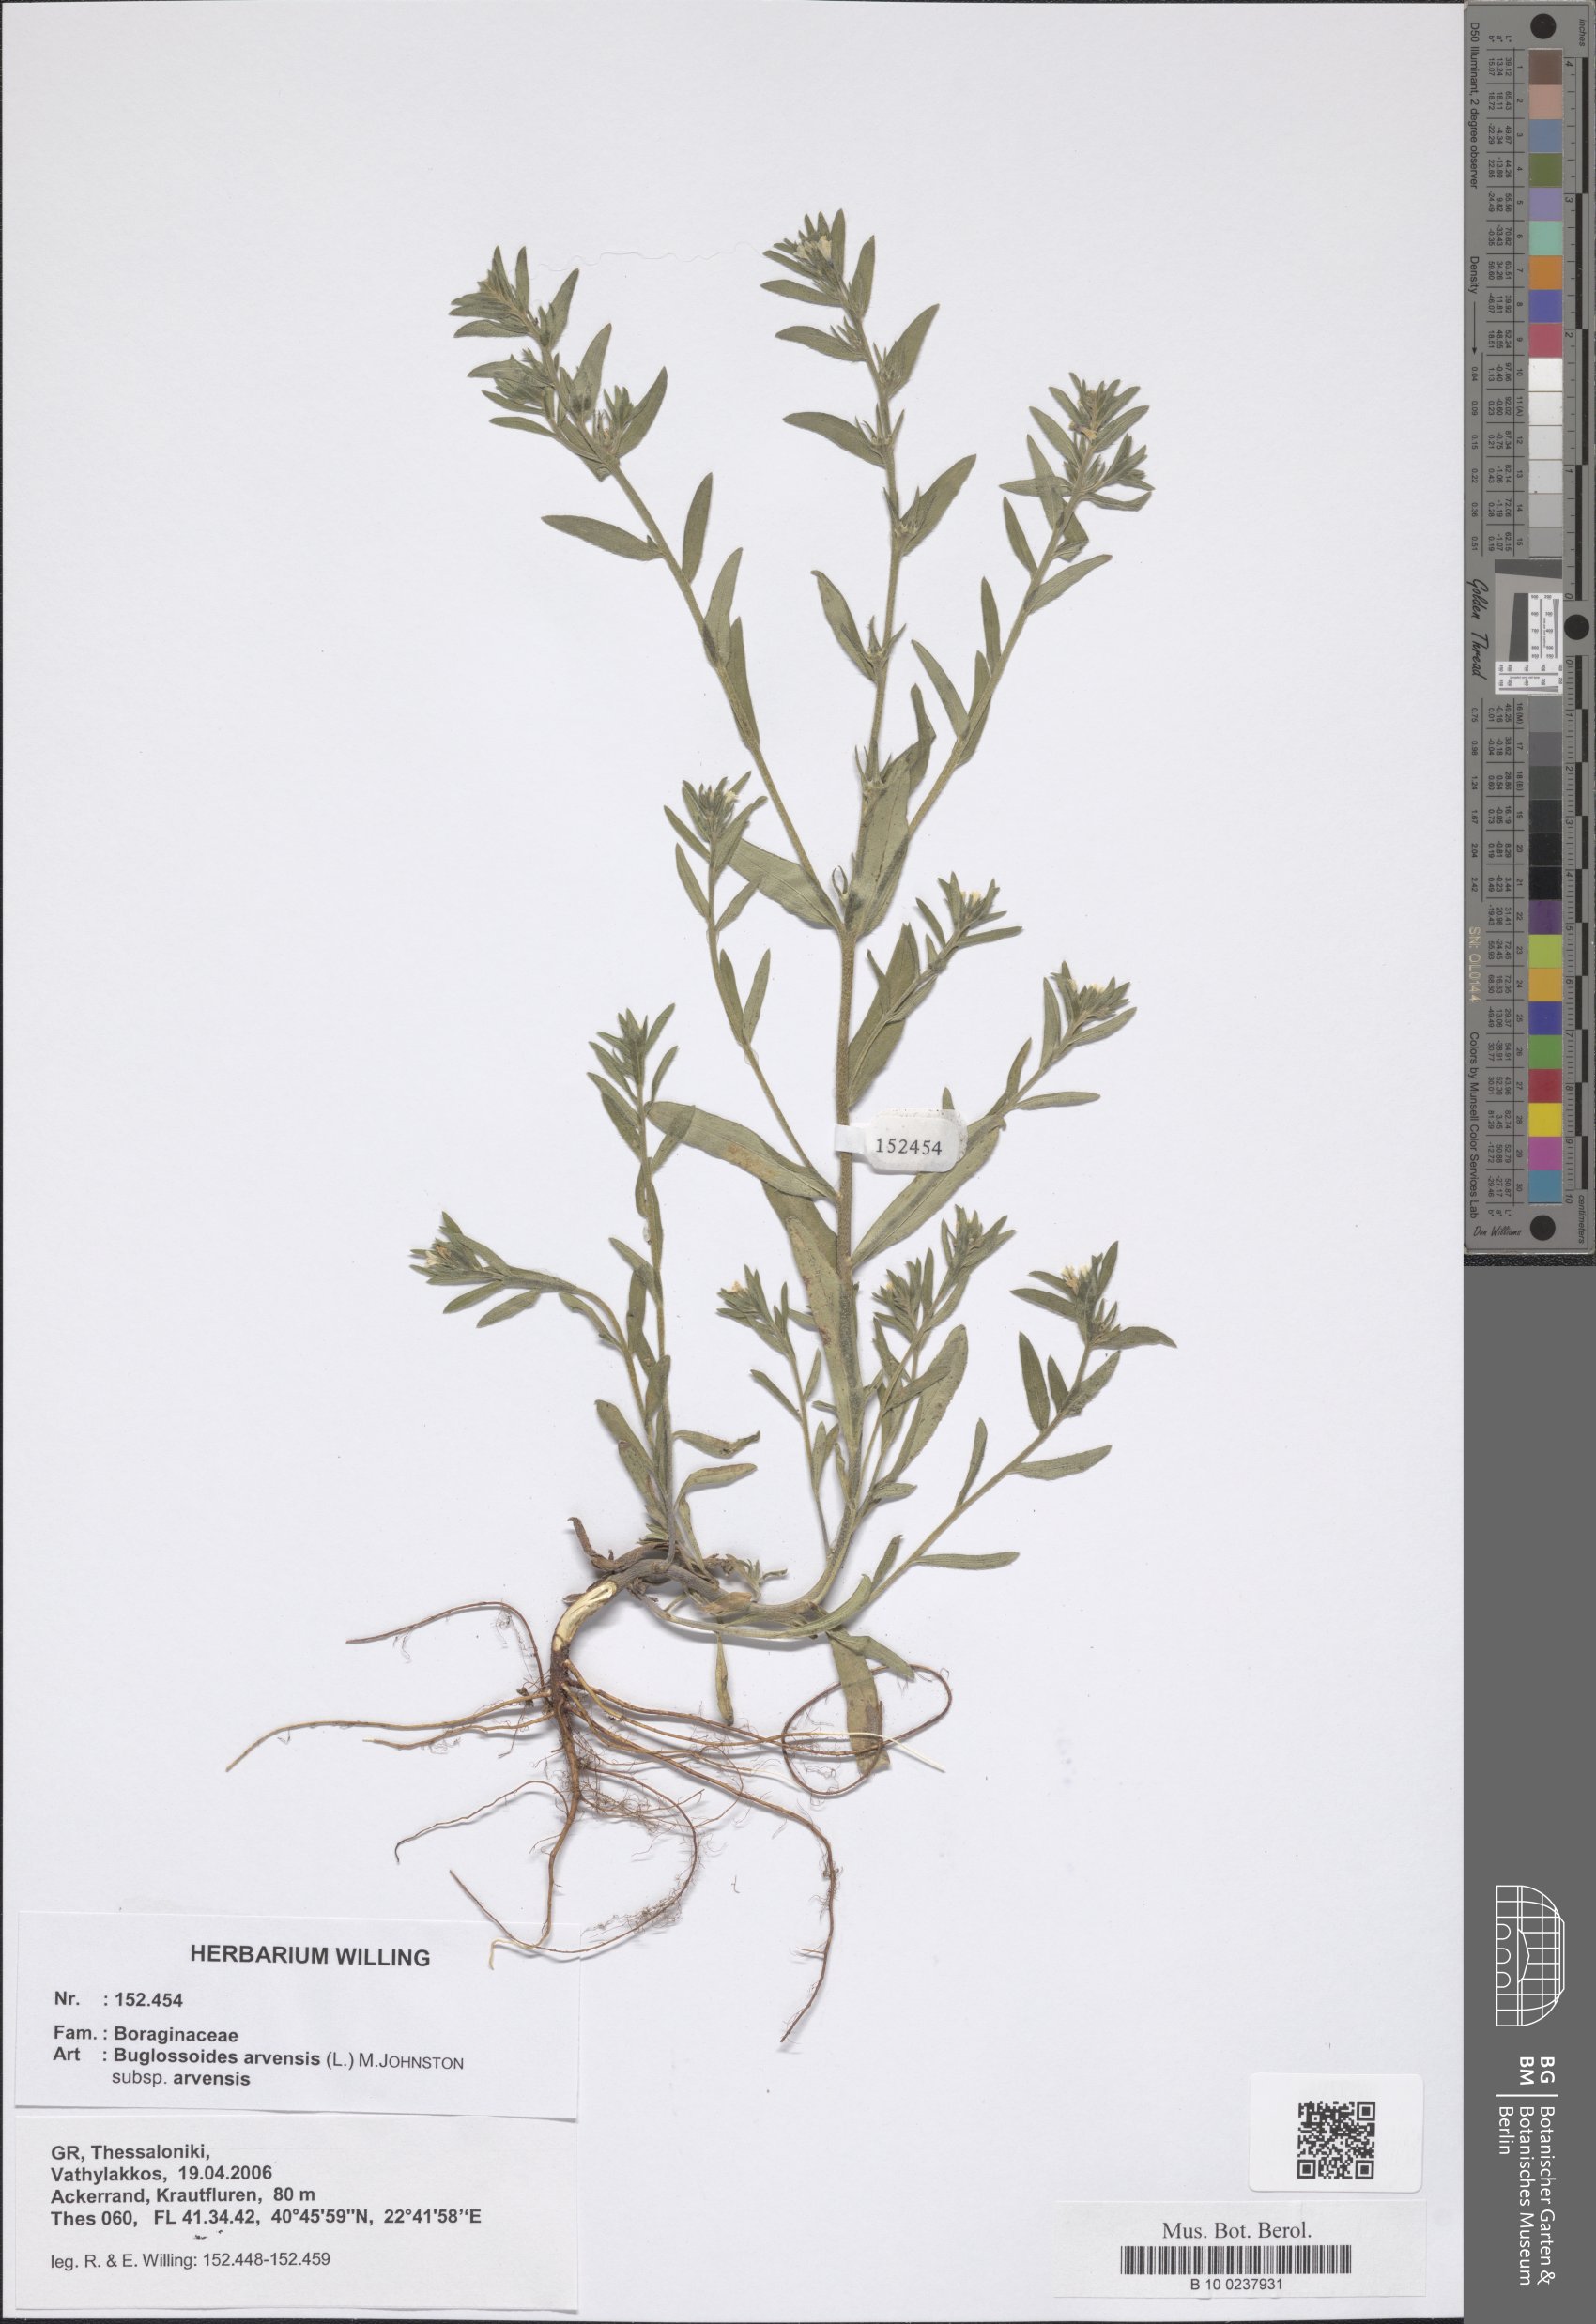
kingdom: Plantae
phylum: Tracheophyta
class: Magnoliopsida
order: Boraginales
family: Boraginaceae
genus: Buglossoides
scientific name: Buglossoides arvensis
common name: Corn gromwell
